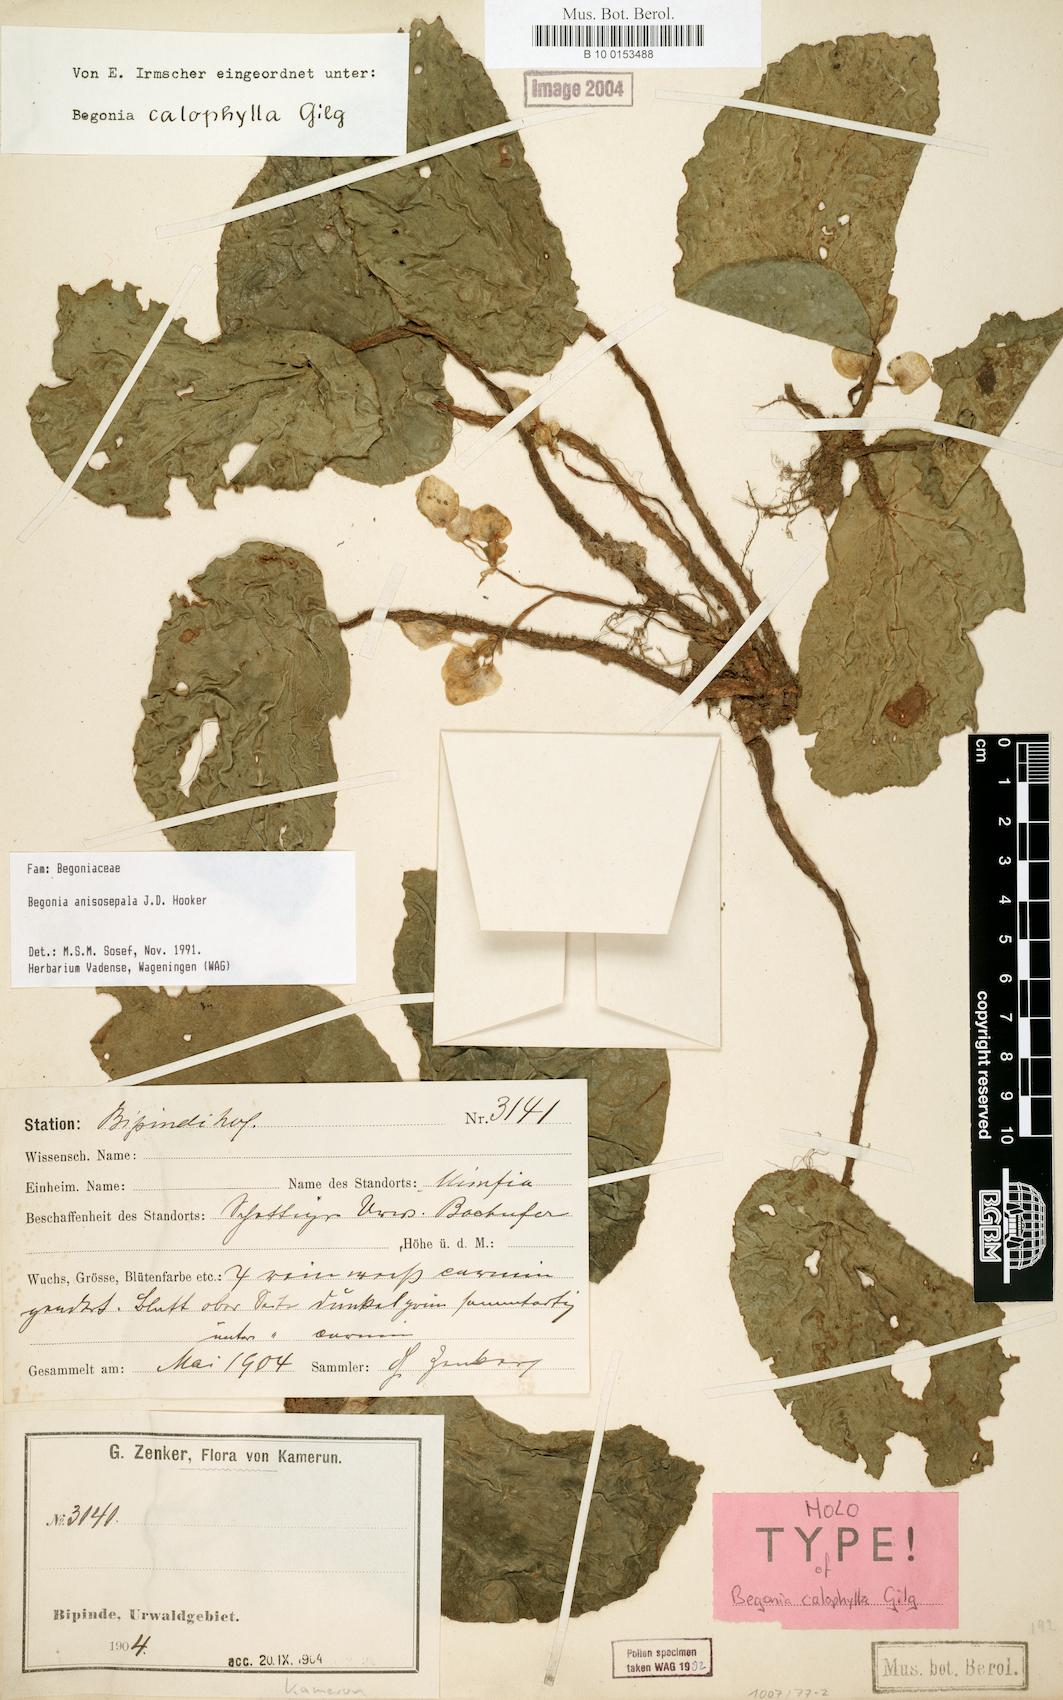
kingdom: Plantae
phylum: Tracheophyta
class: Magnoliopsida
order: Cucurbitales
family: Begoniaceae
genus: Begonia
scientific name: Begonia anisosepala
